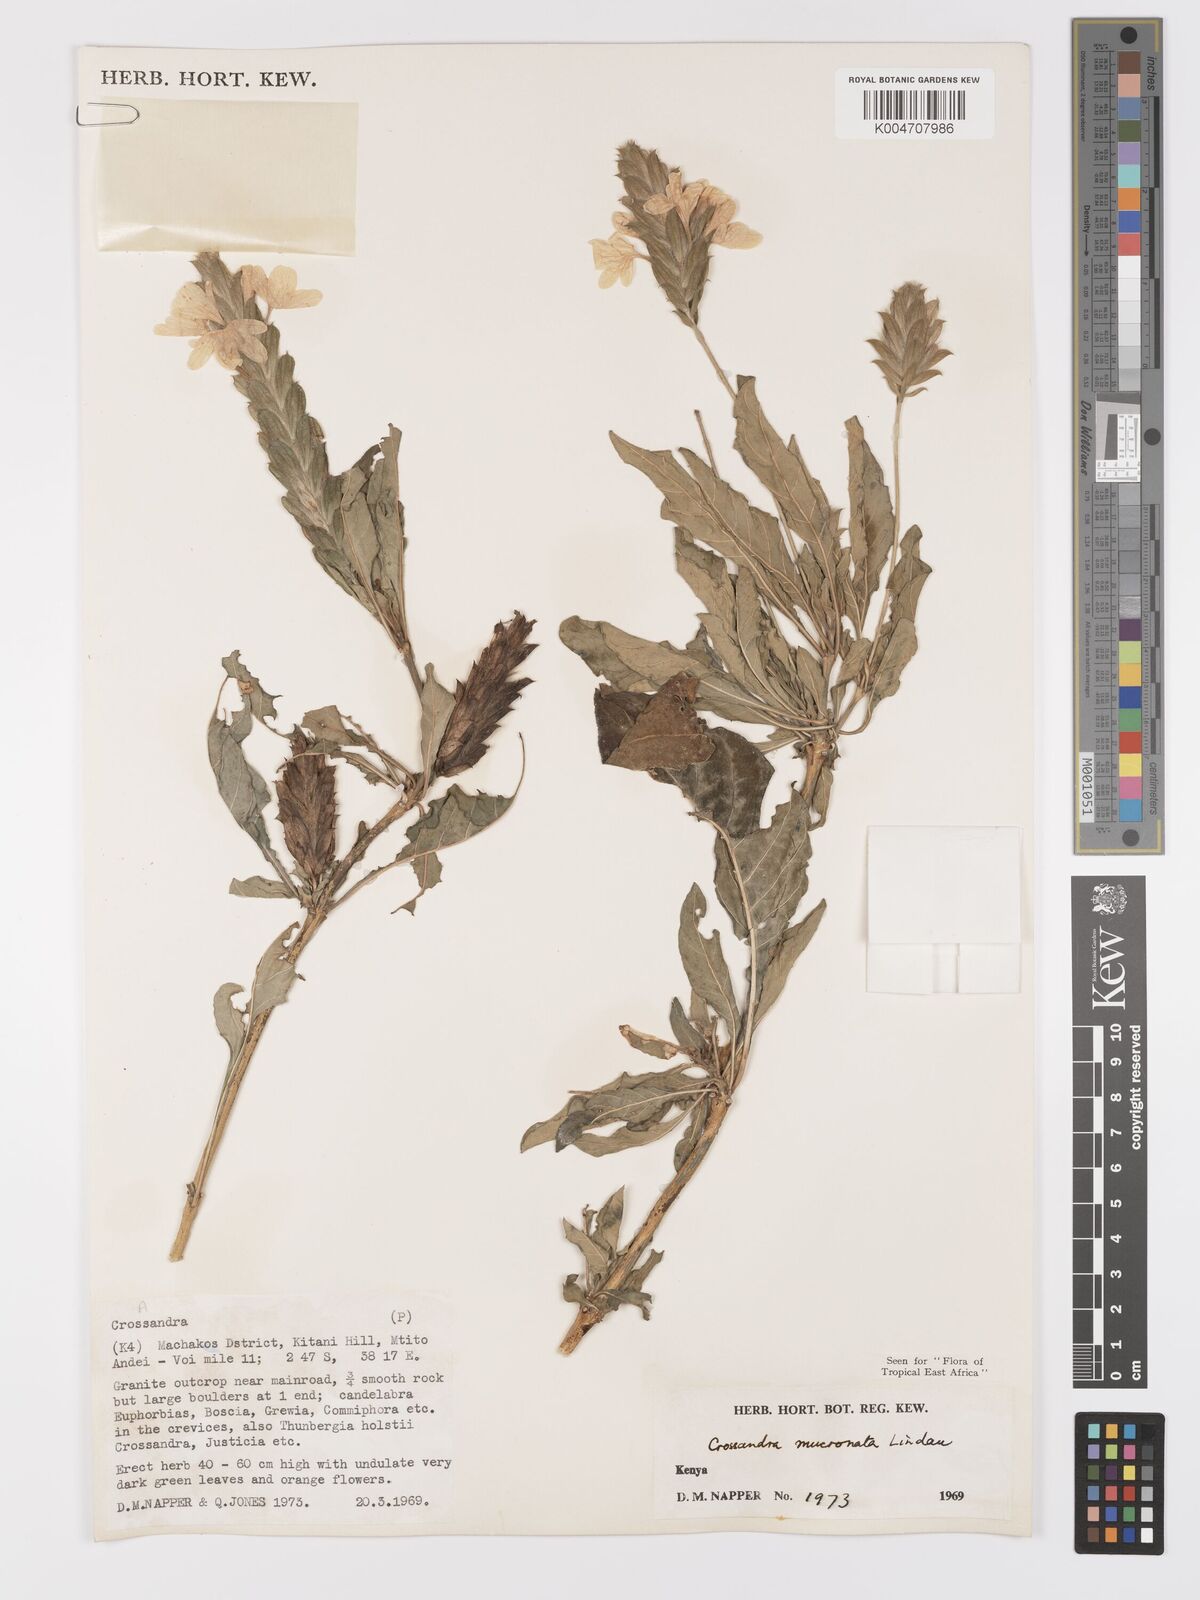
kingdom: Plantae
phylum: Tracheophyta
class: Magnoliopsida
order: Lamiales
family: Acanthaceae
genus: Crossandra
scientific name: Crossandra mucronata
